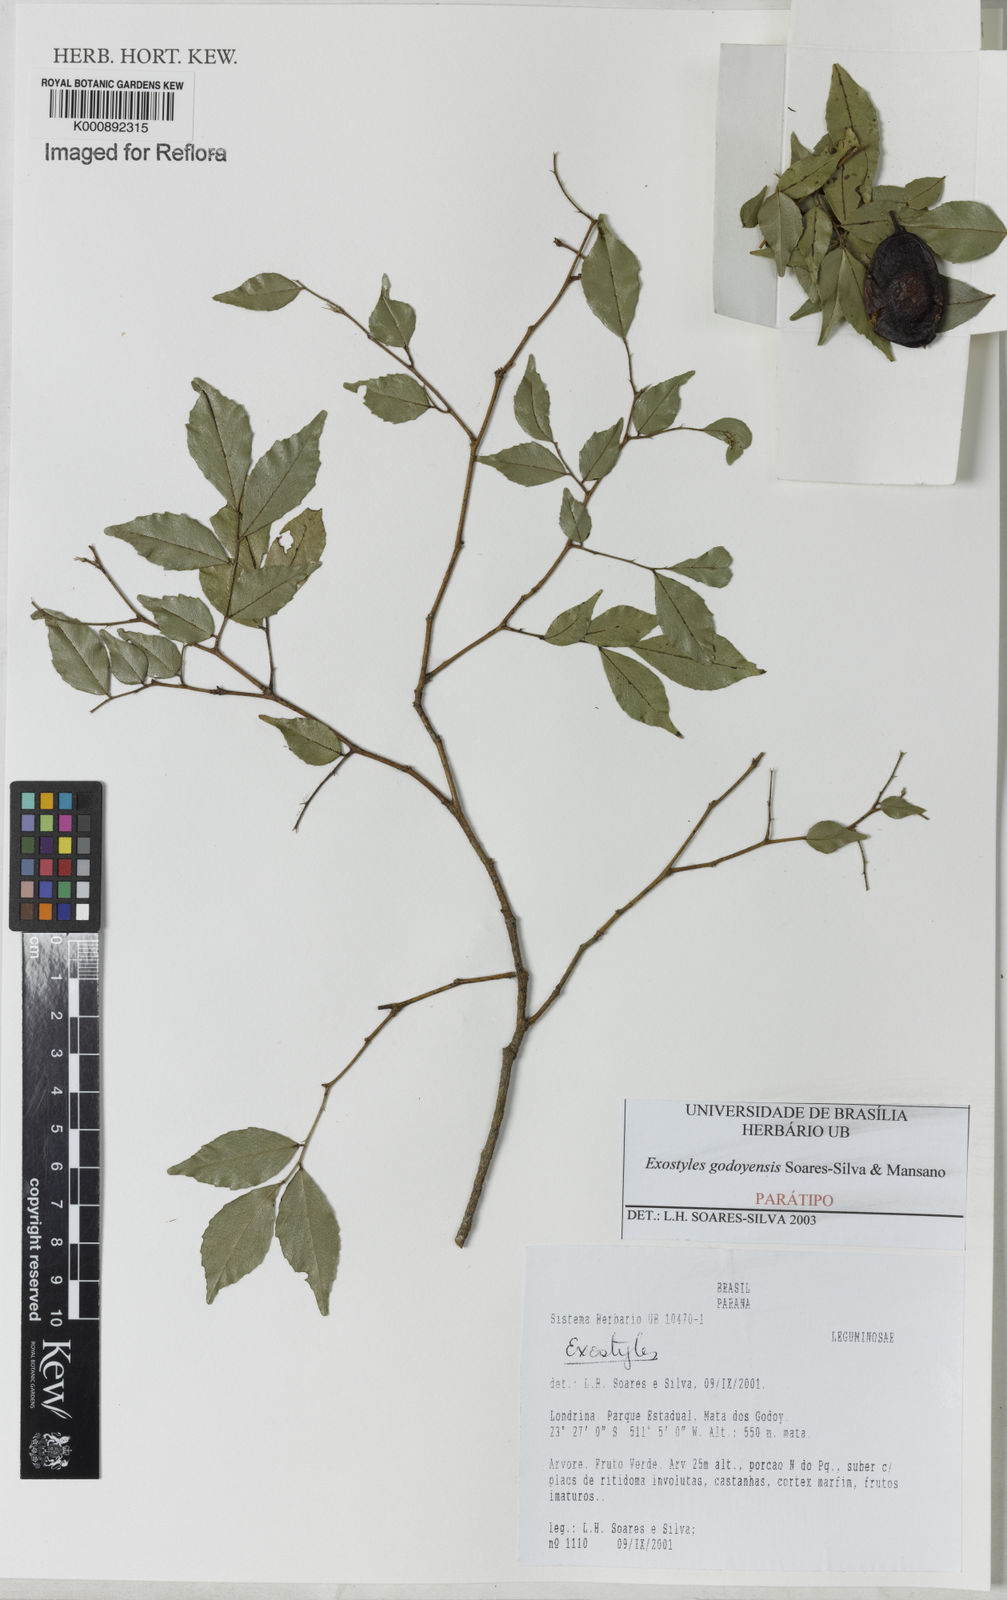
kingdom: Plantae
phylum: Tracheophyta
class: Magnoliopsida
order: Fabales
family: Fabaceae
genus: Exostyles
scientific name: Exostyles godoyensis
